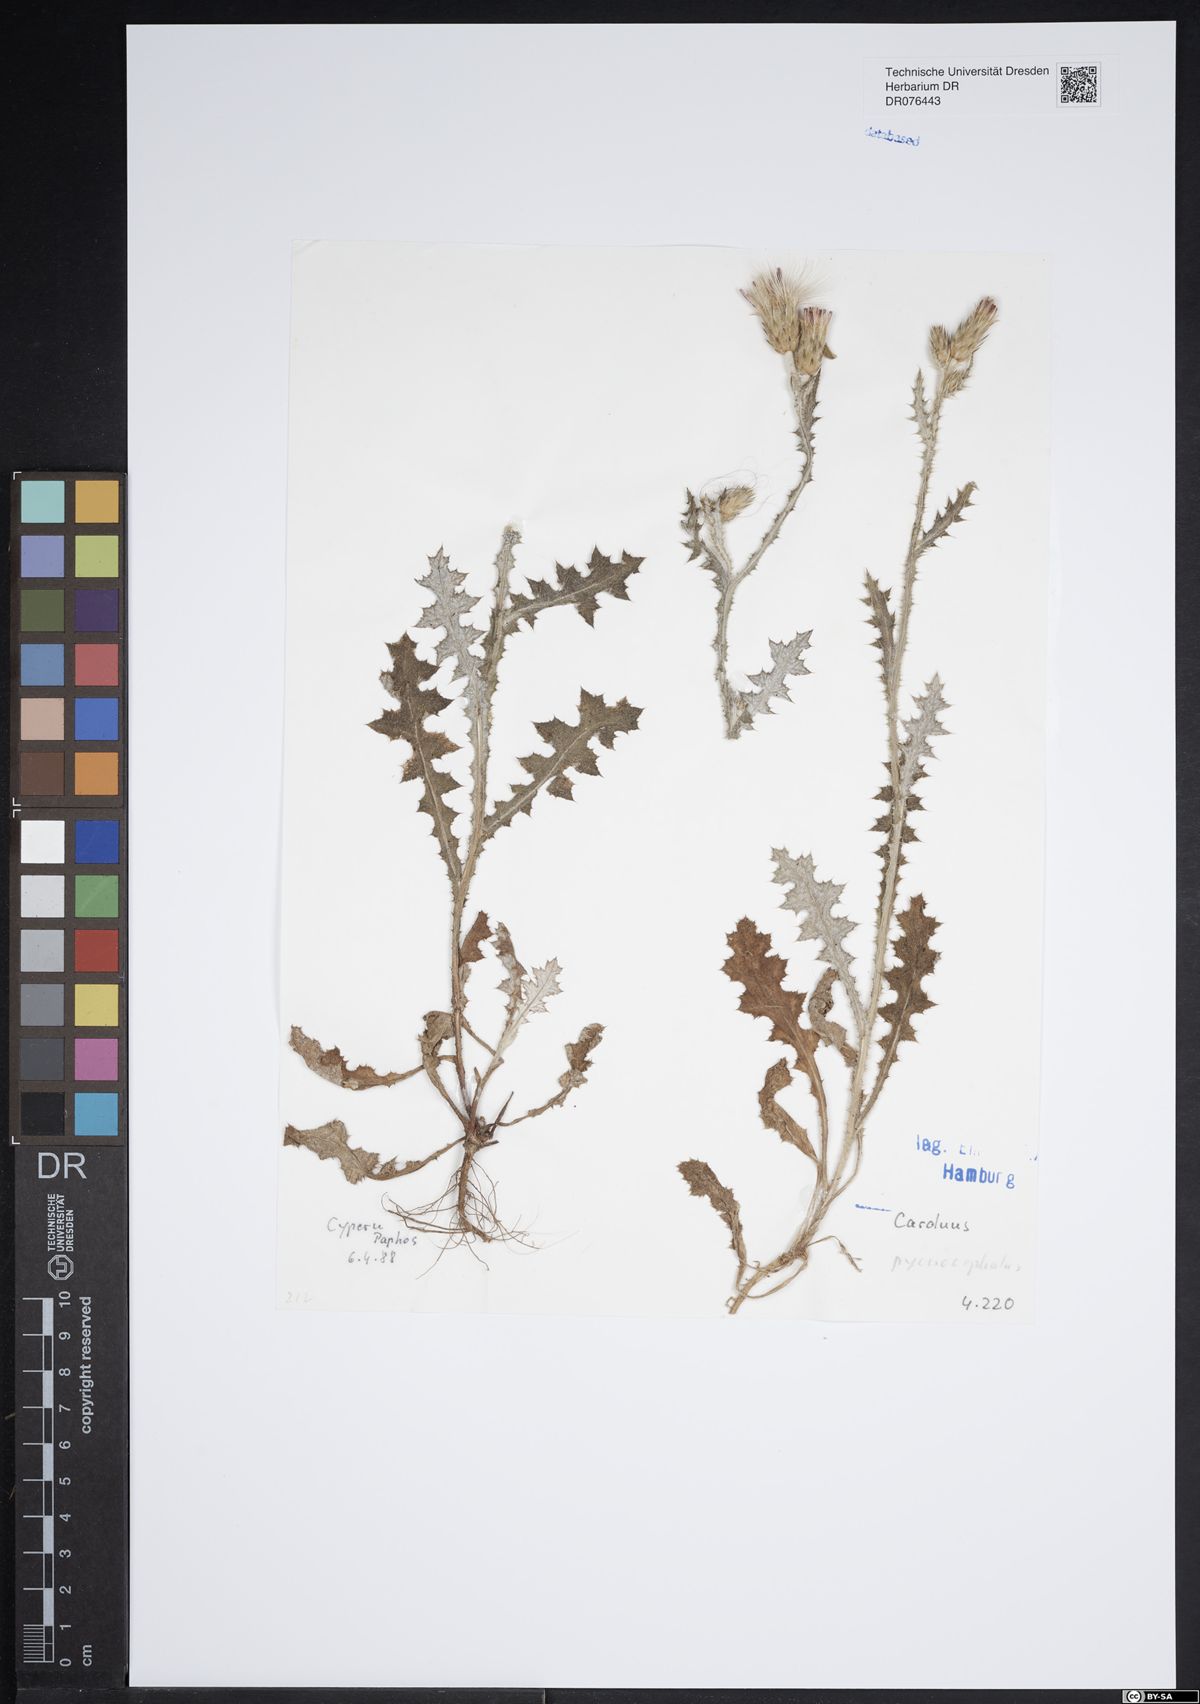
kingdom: Plantae
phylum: Tracheophyta
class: Magnoliopsida
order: Asterales
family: Asteraceae
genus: Carduus
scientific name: Carduus pycnocephalus
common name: Plymouth thistle
